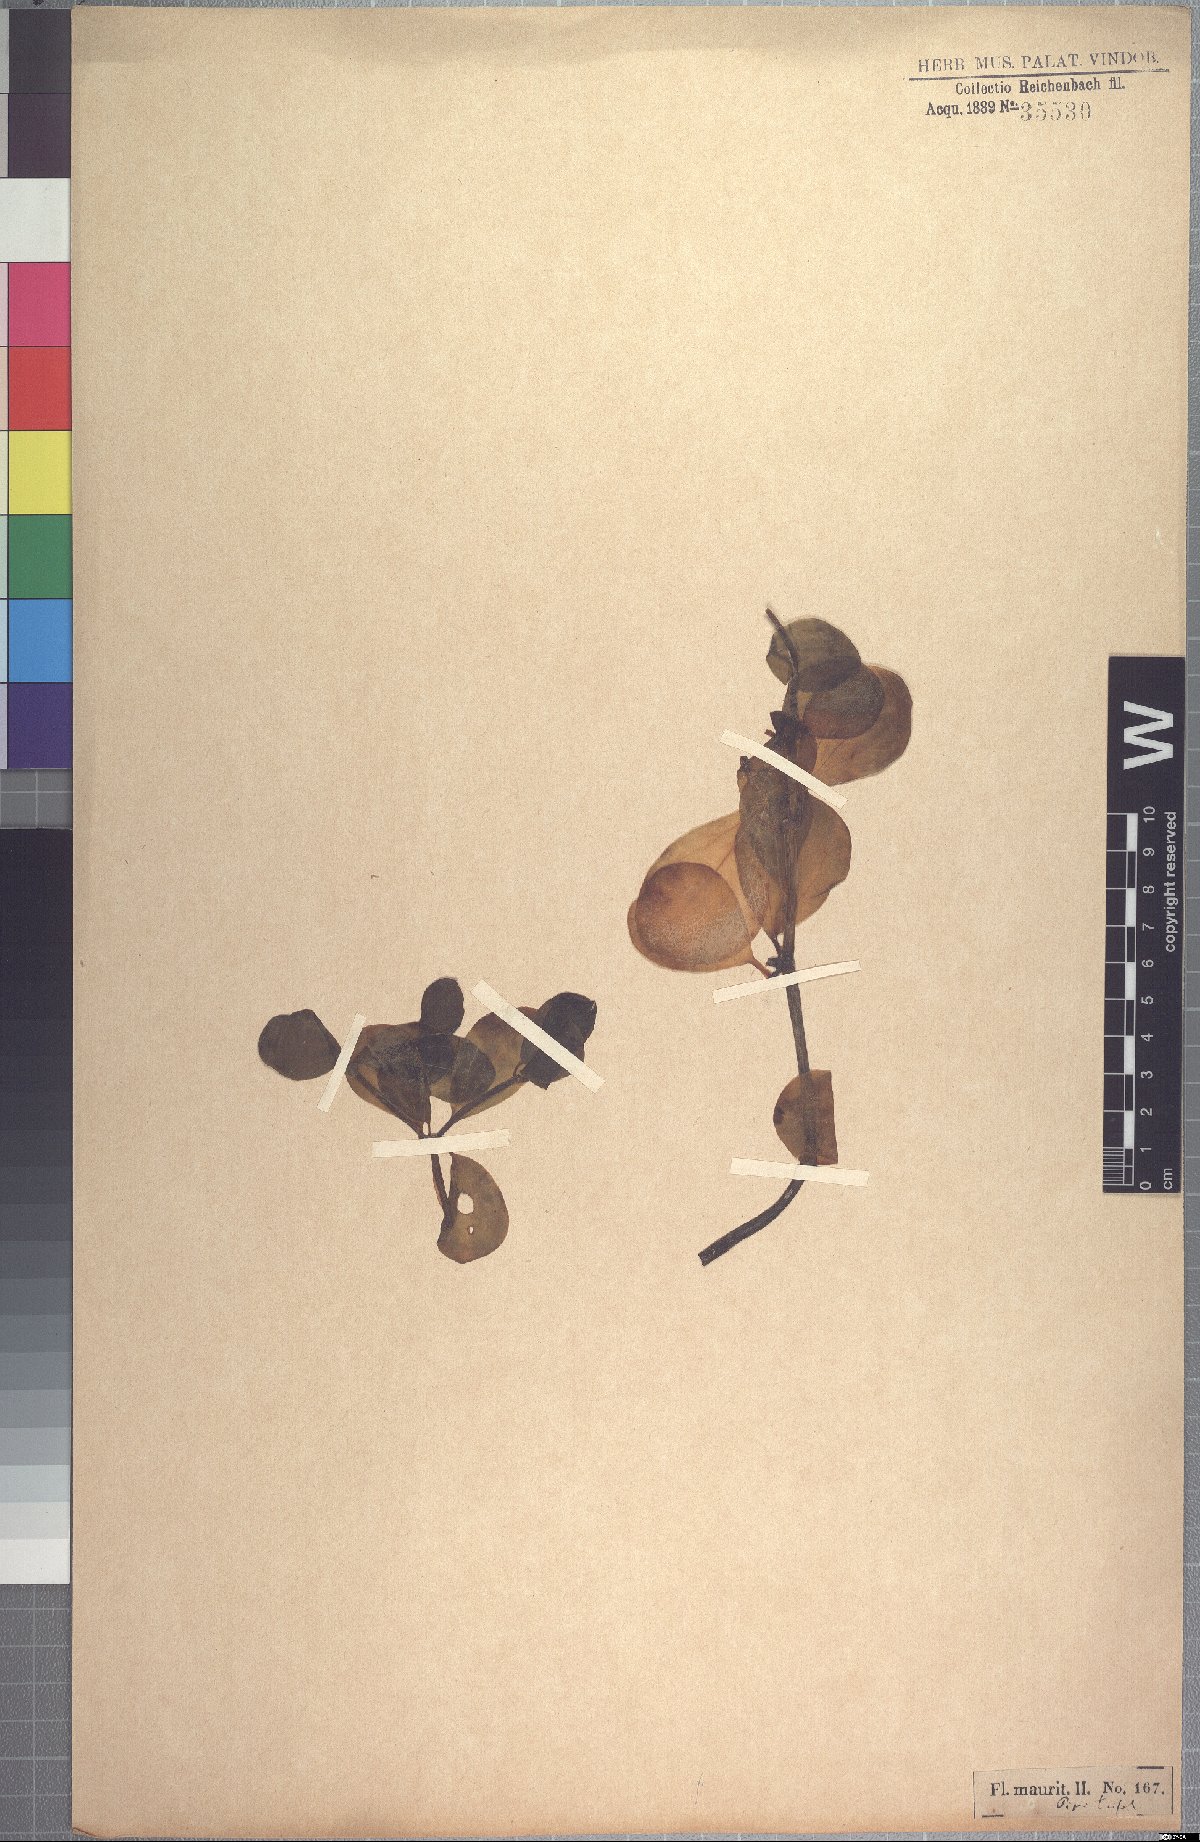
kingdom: Plantae
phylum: Tracheophyta
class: Magnoliopsida
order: Piperales
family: Piperaceae
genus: Peperomia
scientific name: Peperomia portulacoides
